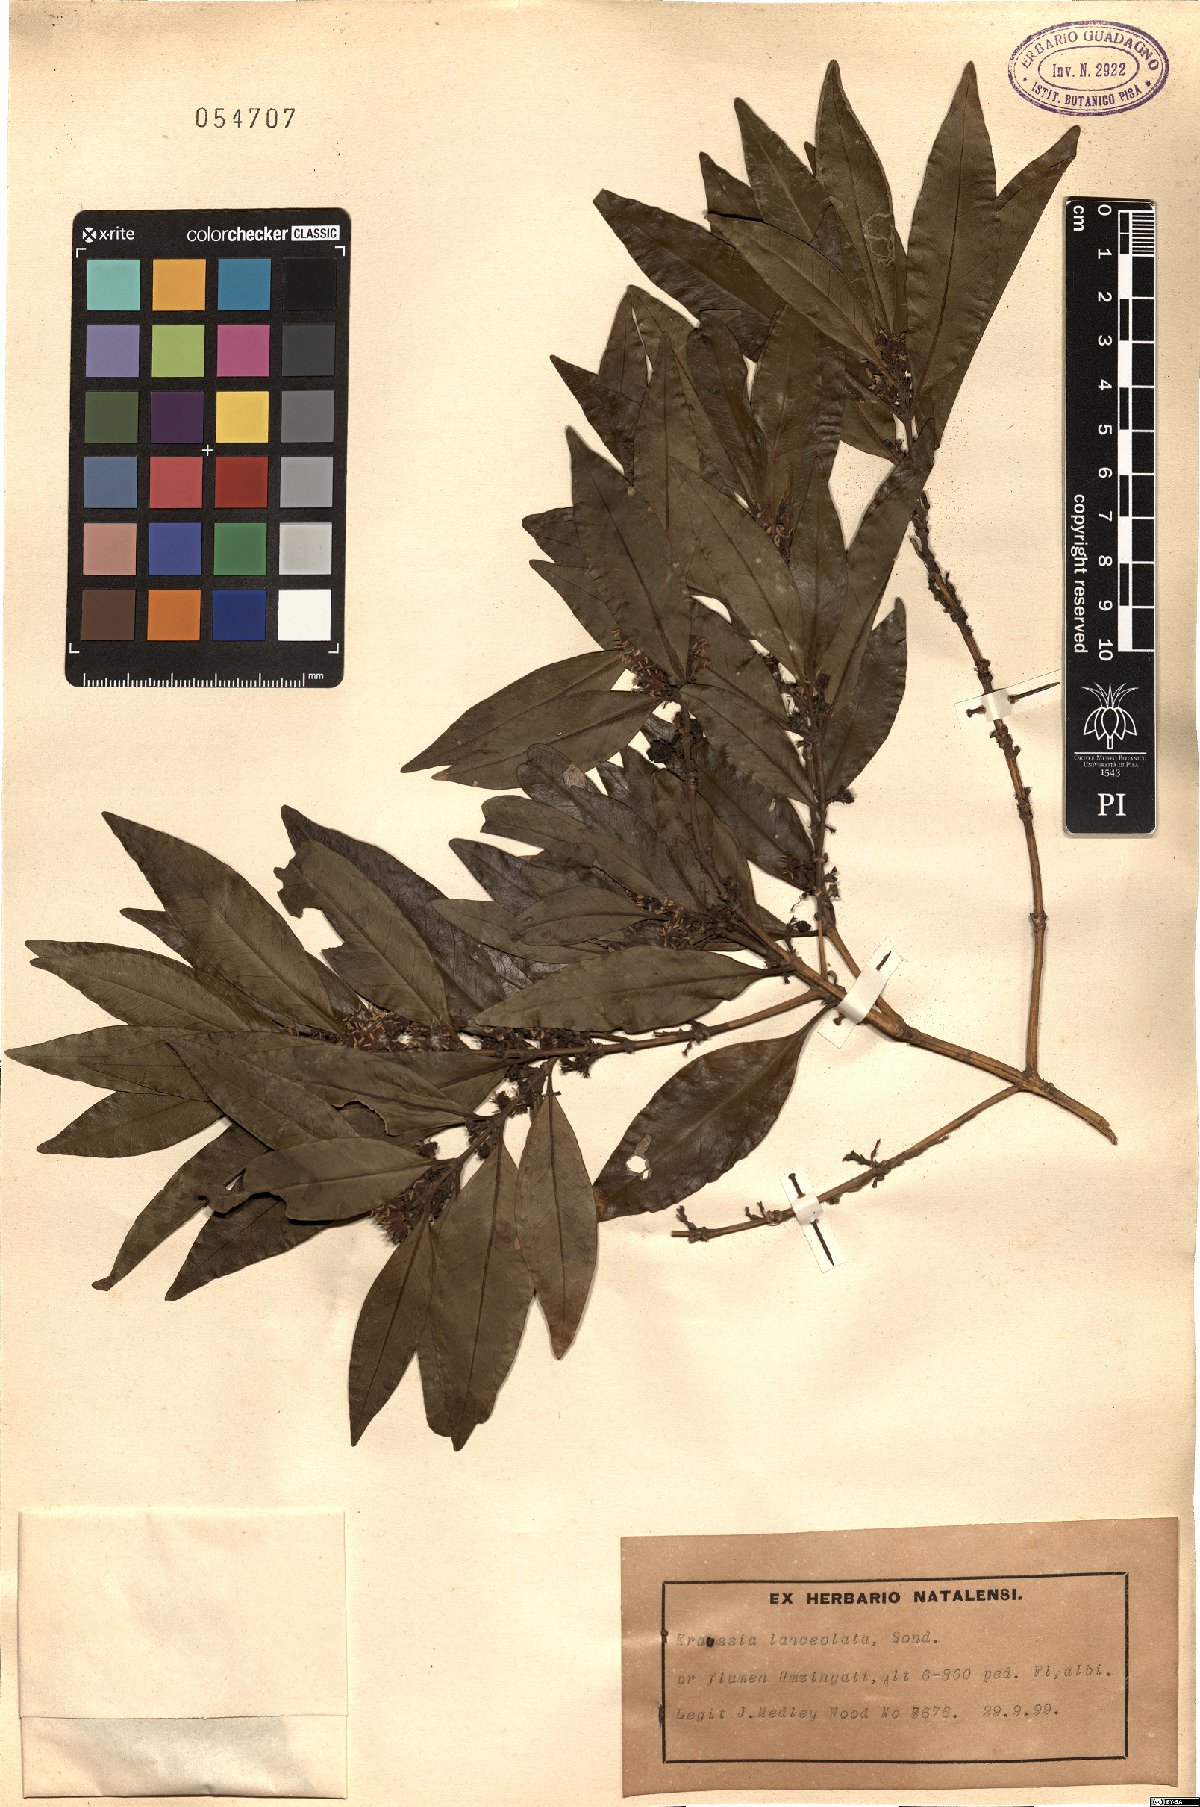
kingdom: Plantae
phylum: Tracheophyta
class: Magnoliopsida
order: Gentianales
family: Rubiaceae
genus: Empogona
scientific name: Empogona lanceolata
